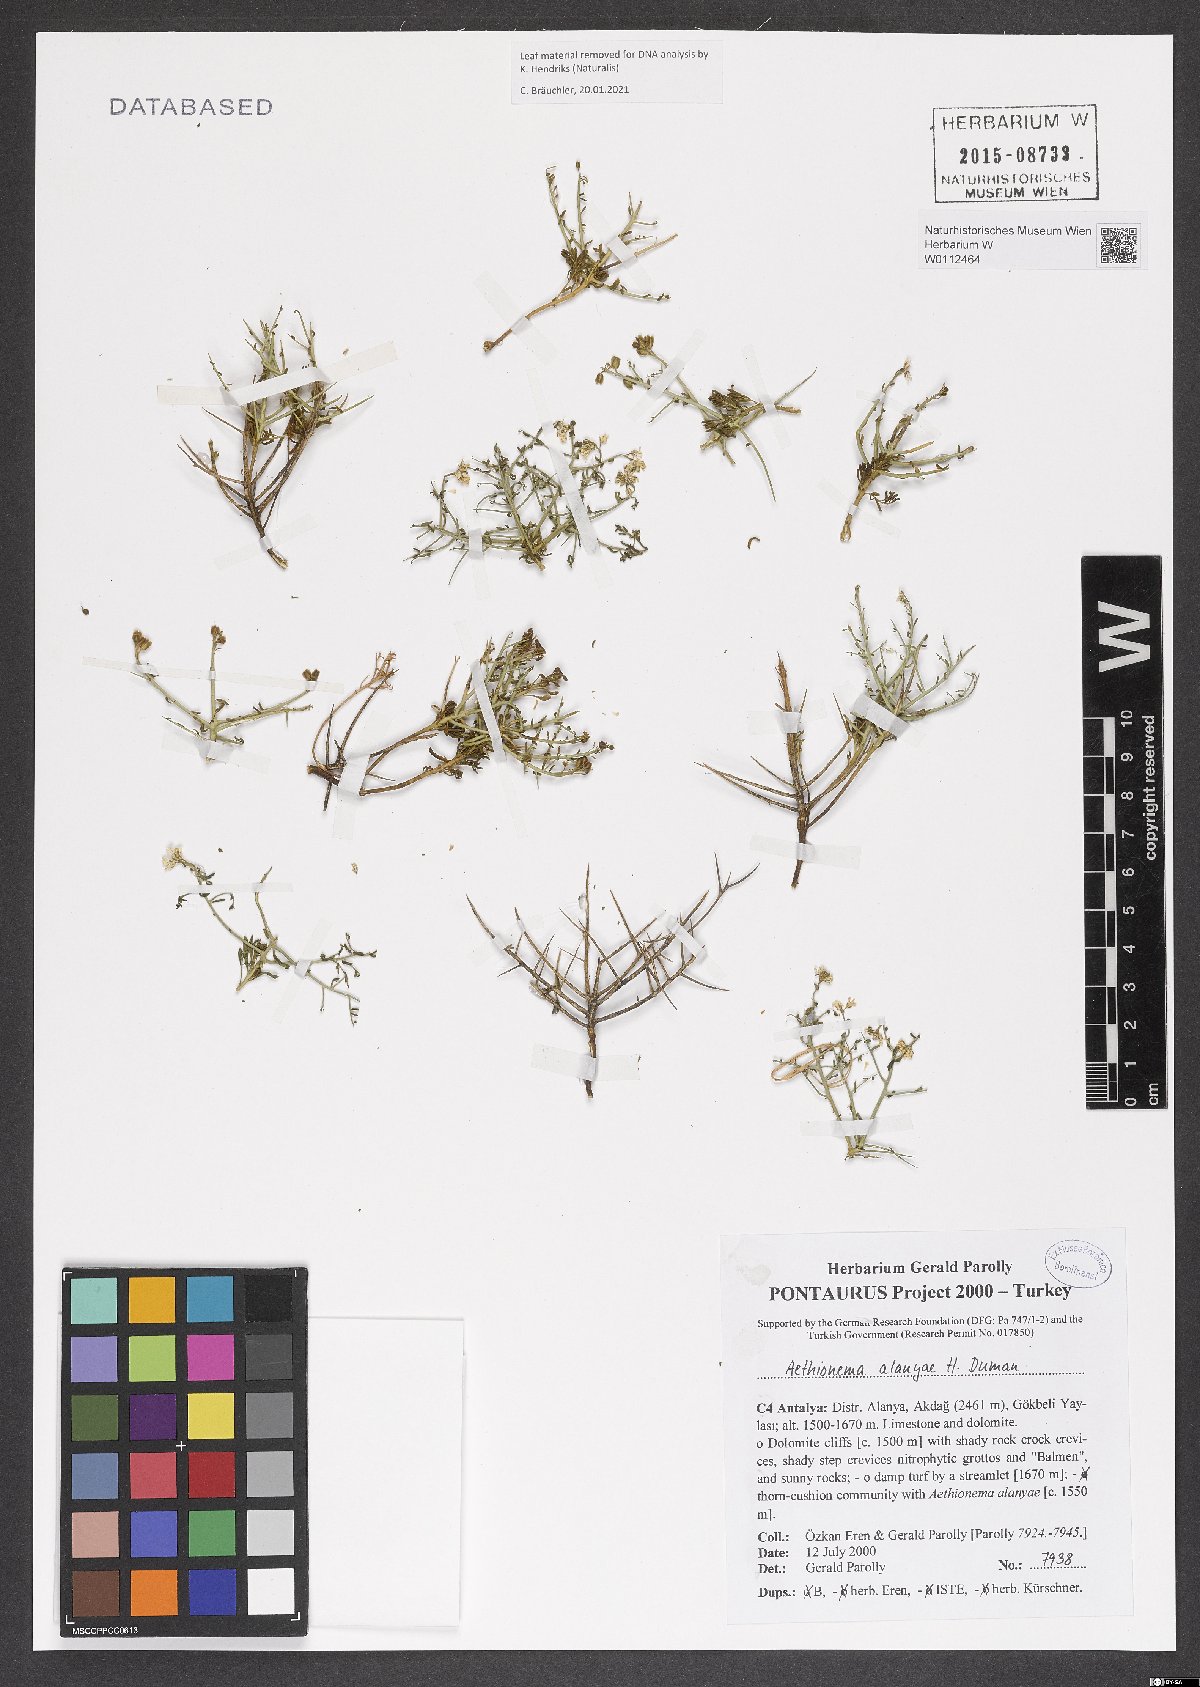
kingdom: Plantae
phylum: Tracheophyta
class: Magnoliopsida
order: Brassicales
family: Brassicaceae
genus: Aethionema
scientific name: Aethionema alanyae
